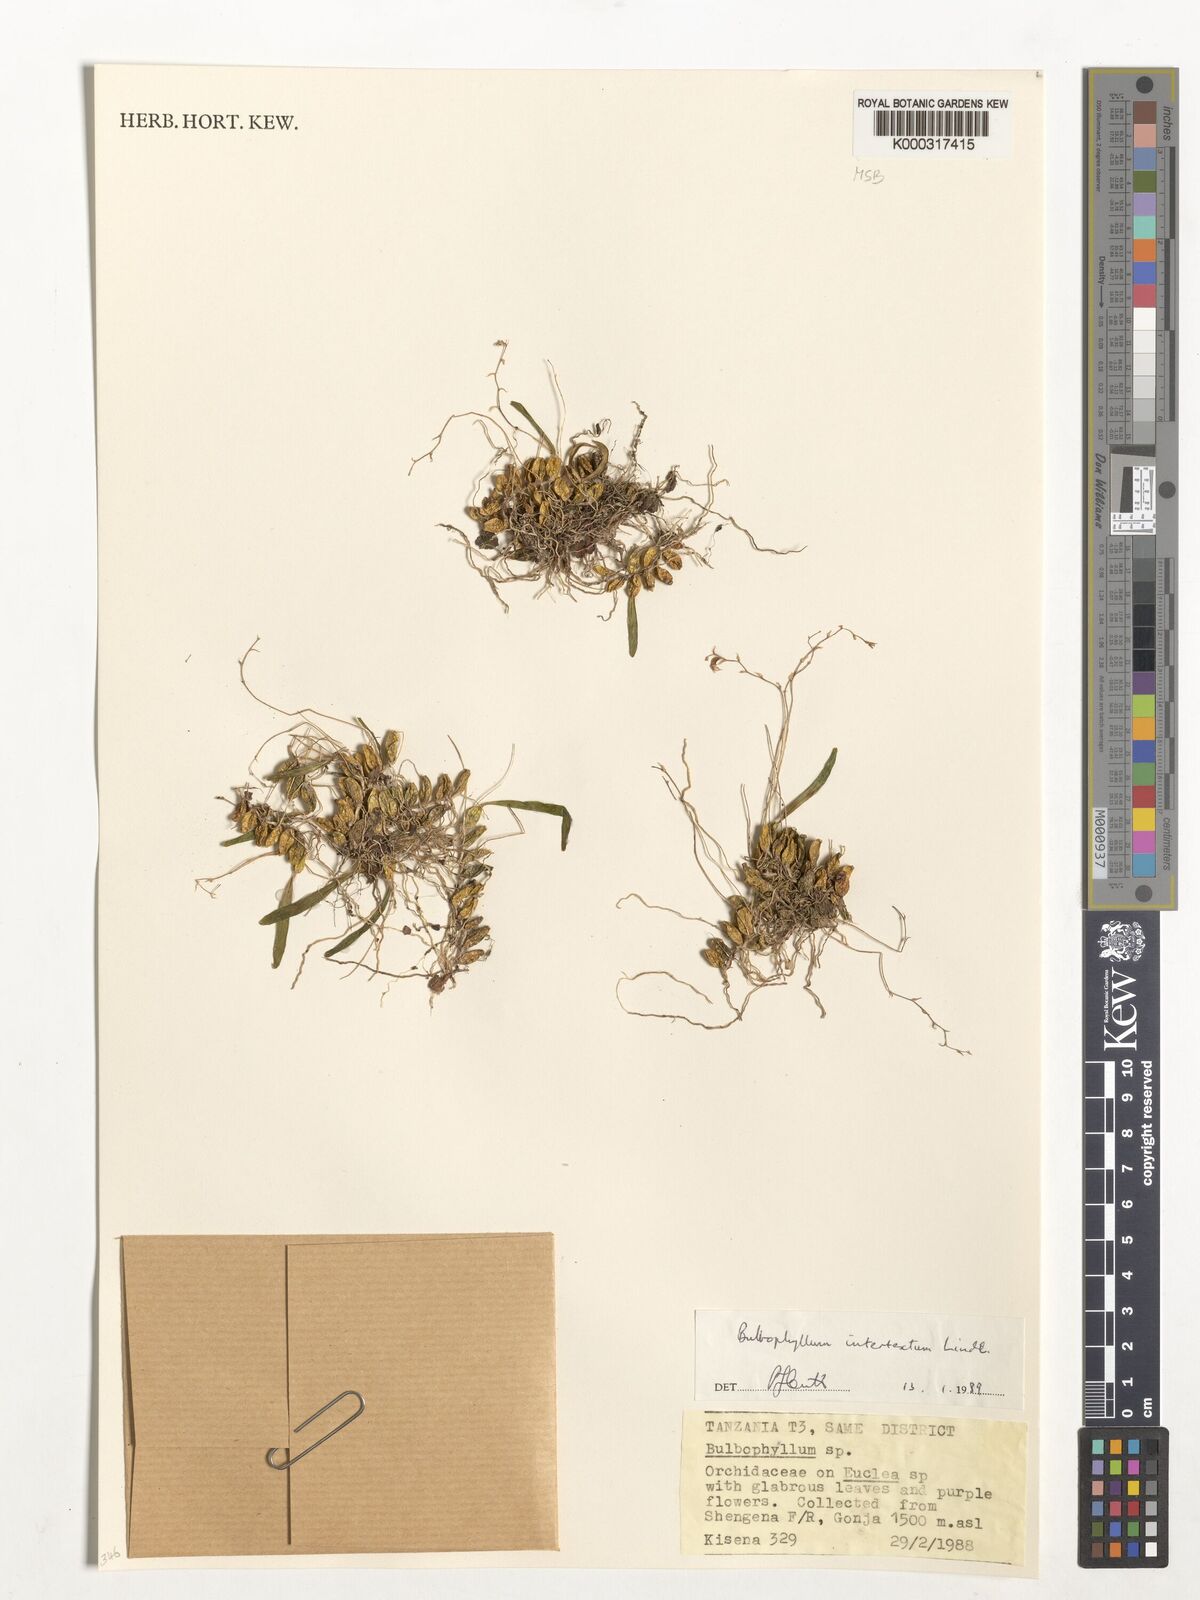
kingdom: Plantae
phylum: Tracheophyta
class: Liliopsida
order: Asparagales
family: Orchidaceae
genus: Bulbophyllum
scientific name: Bulbophyllum intertextum
